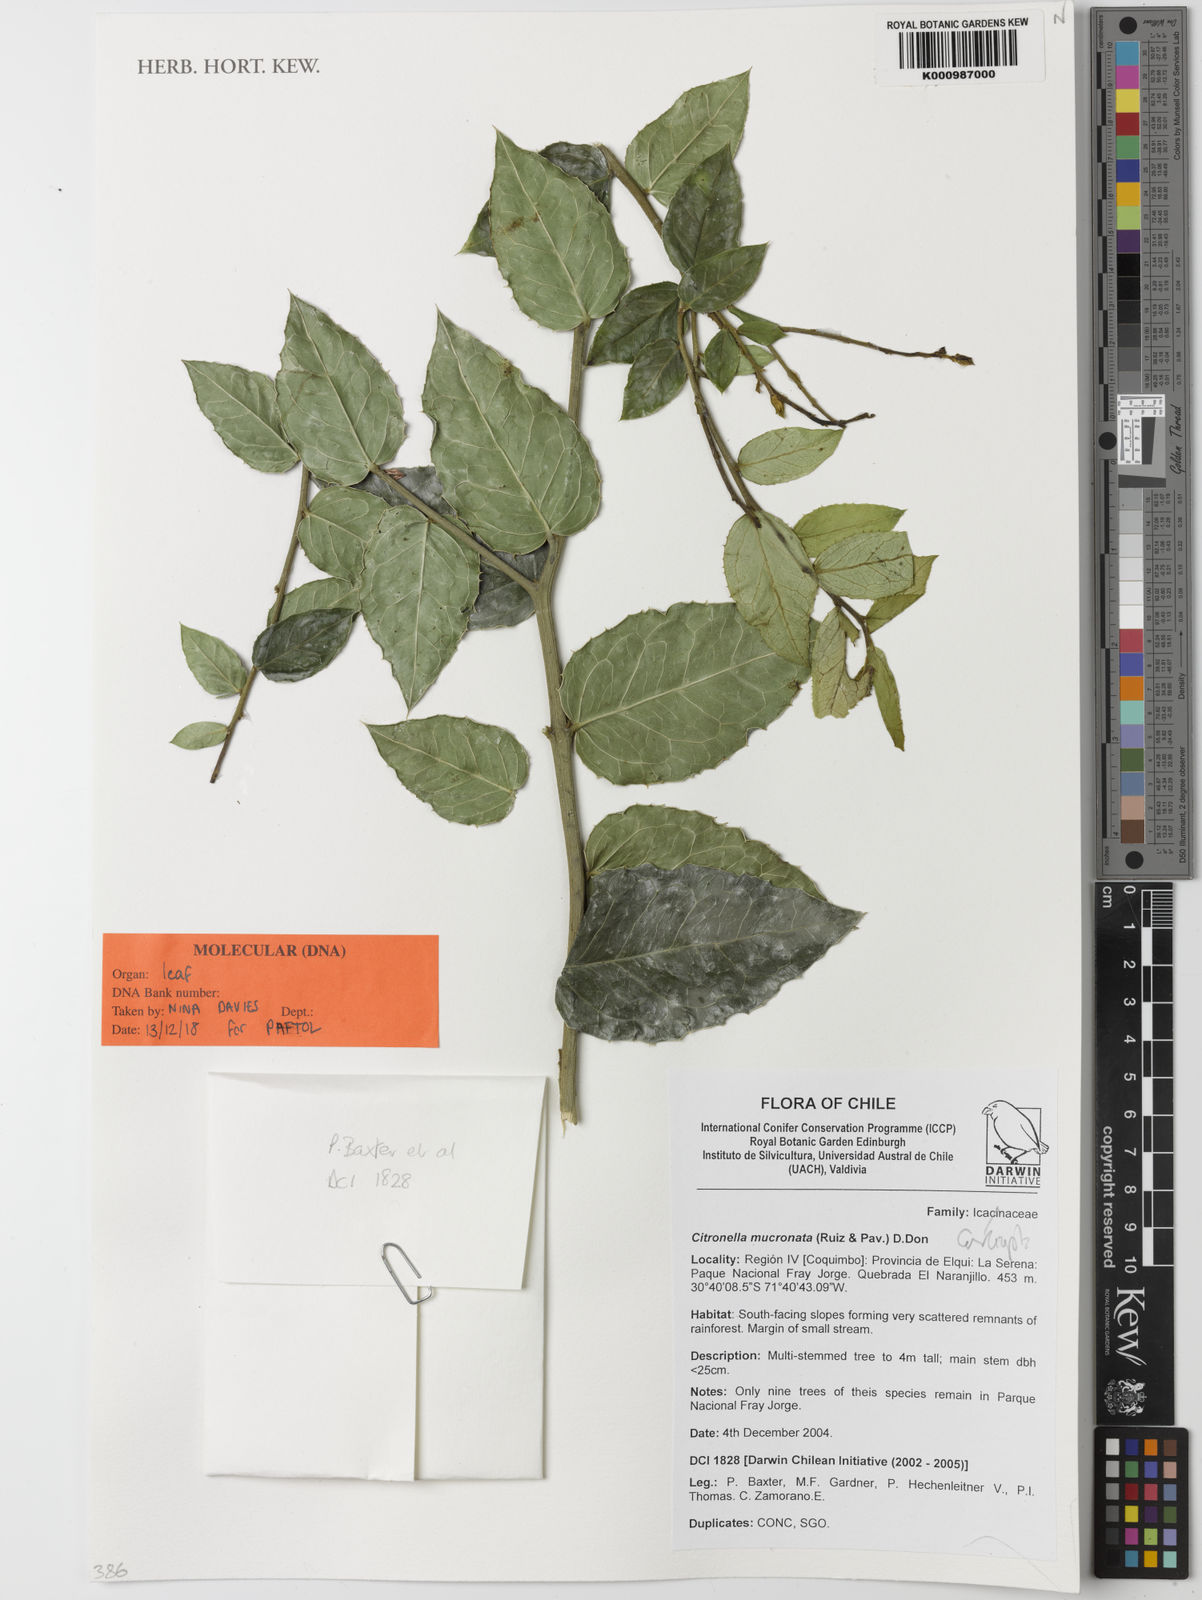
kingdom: Plantae
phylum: Tracheophyta
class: Magnoliopsida
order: Cardiopteridales
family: Cardiopteridaceae
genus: Citronella
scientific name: Citronella mucronata
